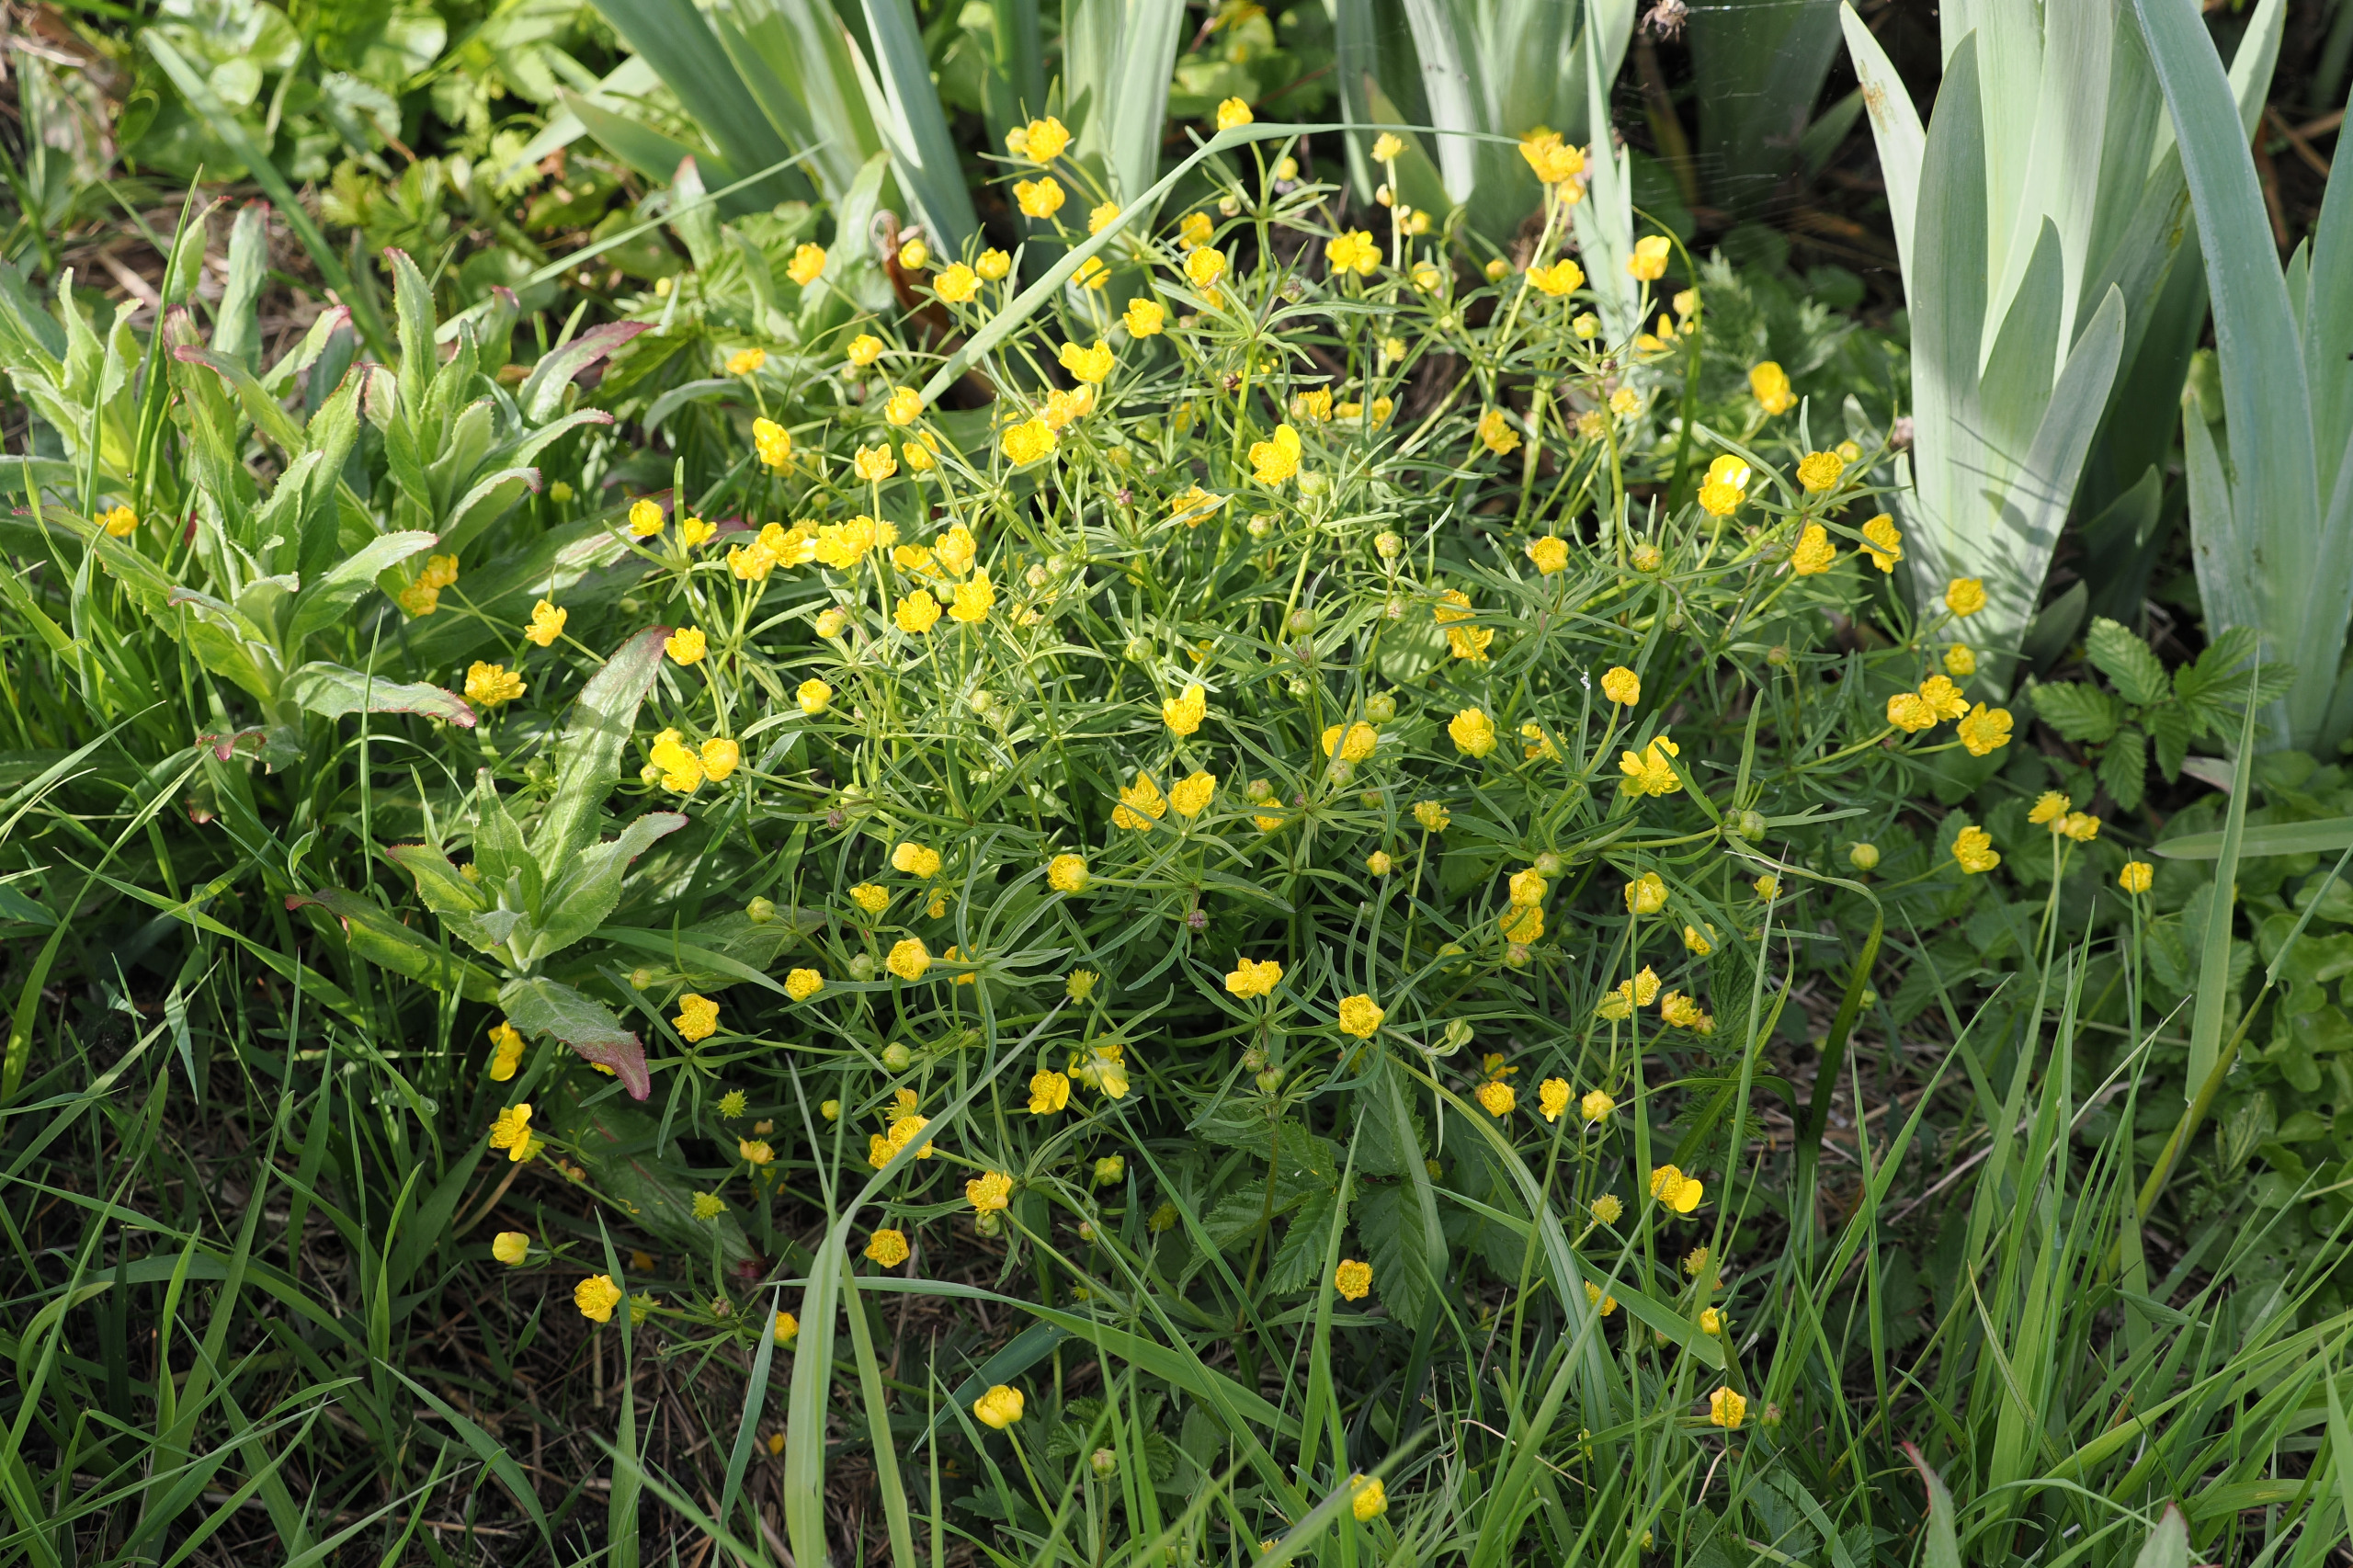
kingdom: Plantae
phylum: Tracheophyta
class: Magnoliopsida
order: Ranunculales
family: Ranunculaceae
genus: Ranunculus
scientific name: Ranunculus auricomus
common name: Nyrebladet ranunkel
